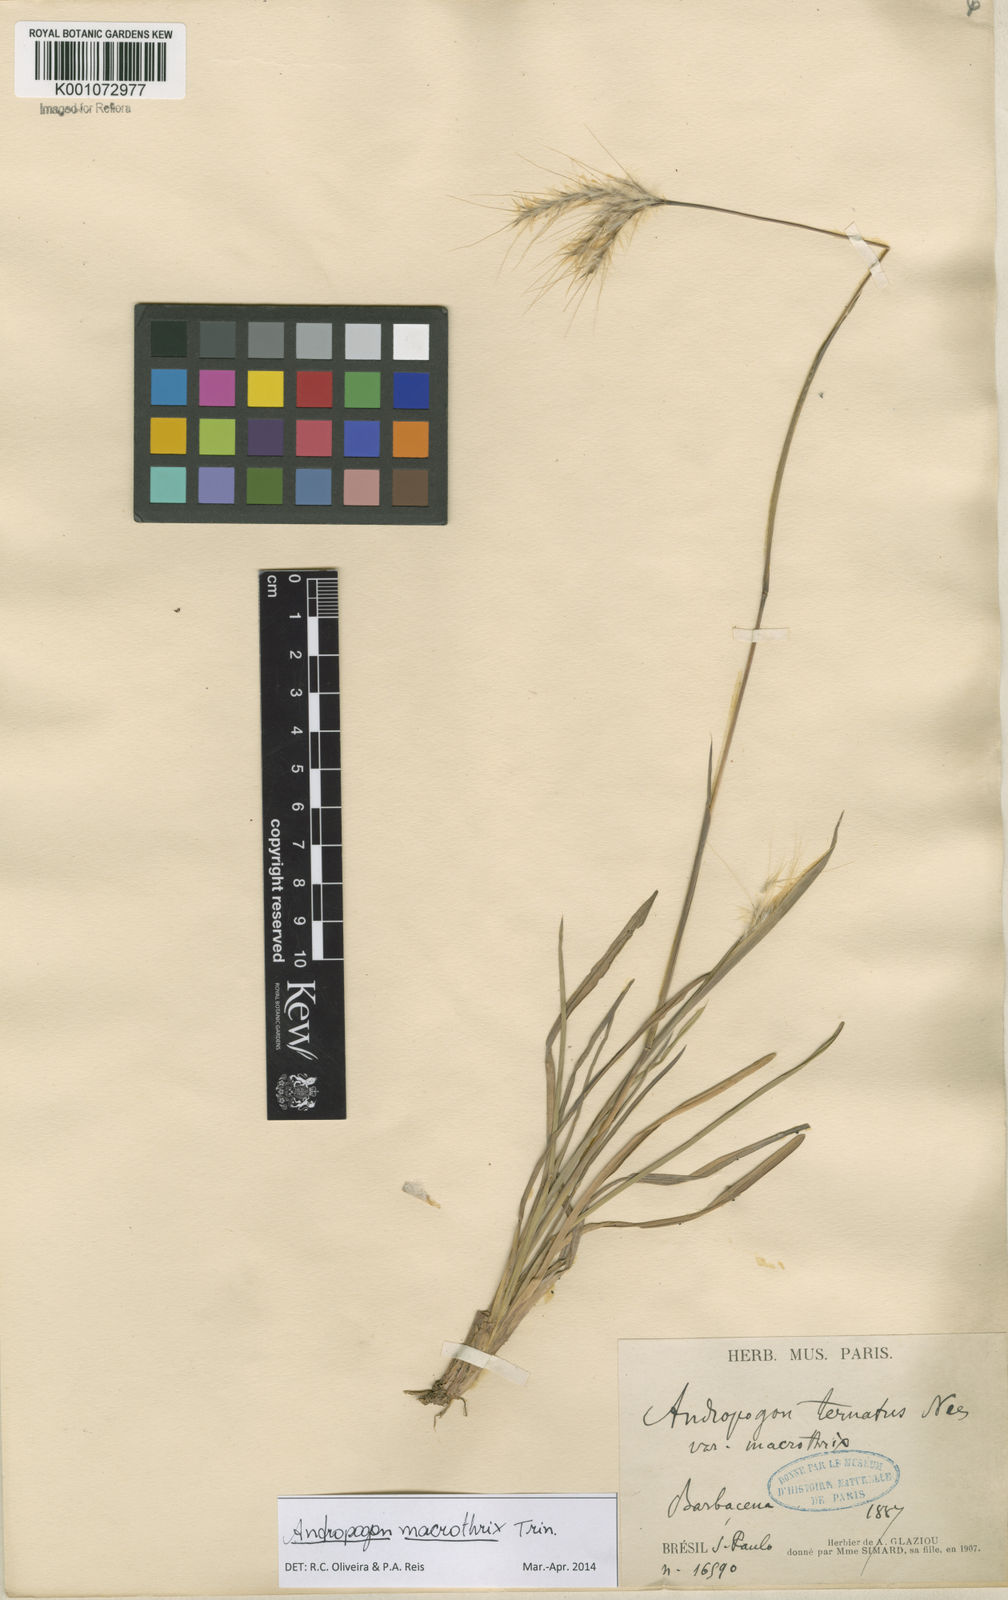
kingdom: Plantae
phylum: Tracheophyta
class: Liliopsida
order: Poales
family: Poaceae
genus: Andropogon
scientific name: Andropogon macrothrix
